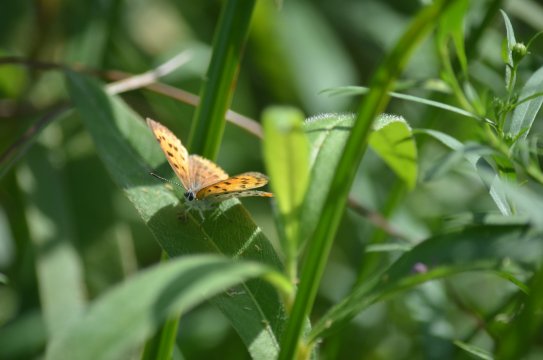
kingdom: Animalia
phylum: Arthropoda
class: Insecta
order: Lepidoptera
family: Sesiidae
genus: Sesia
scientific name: Sesia Lycaena hyllus
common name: Bronze Copper
